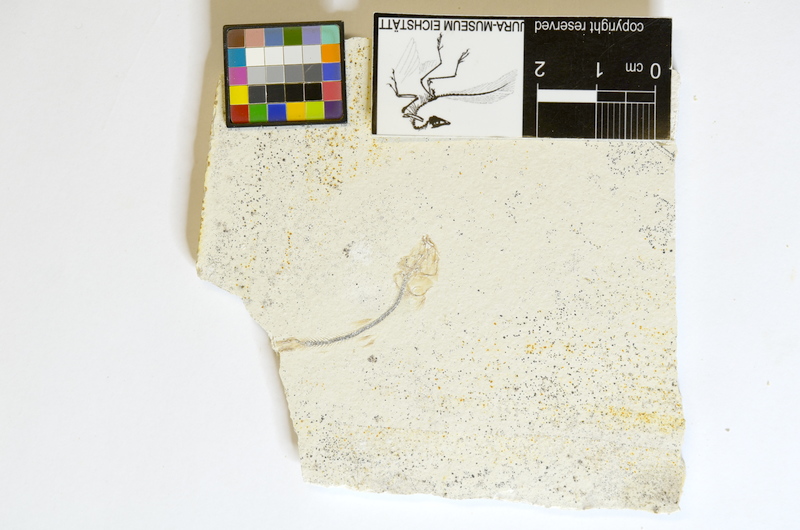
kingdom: Animalia
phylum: Chordata
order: Salmoniformes
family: Orthogonikleithridae
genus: Orthogonikleithrus
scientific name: Orthogonikleithrus hoelli
